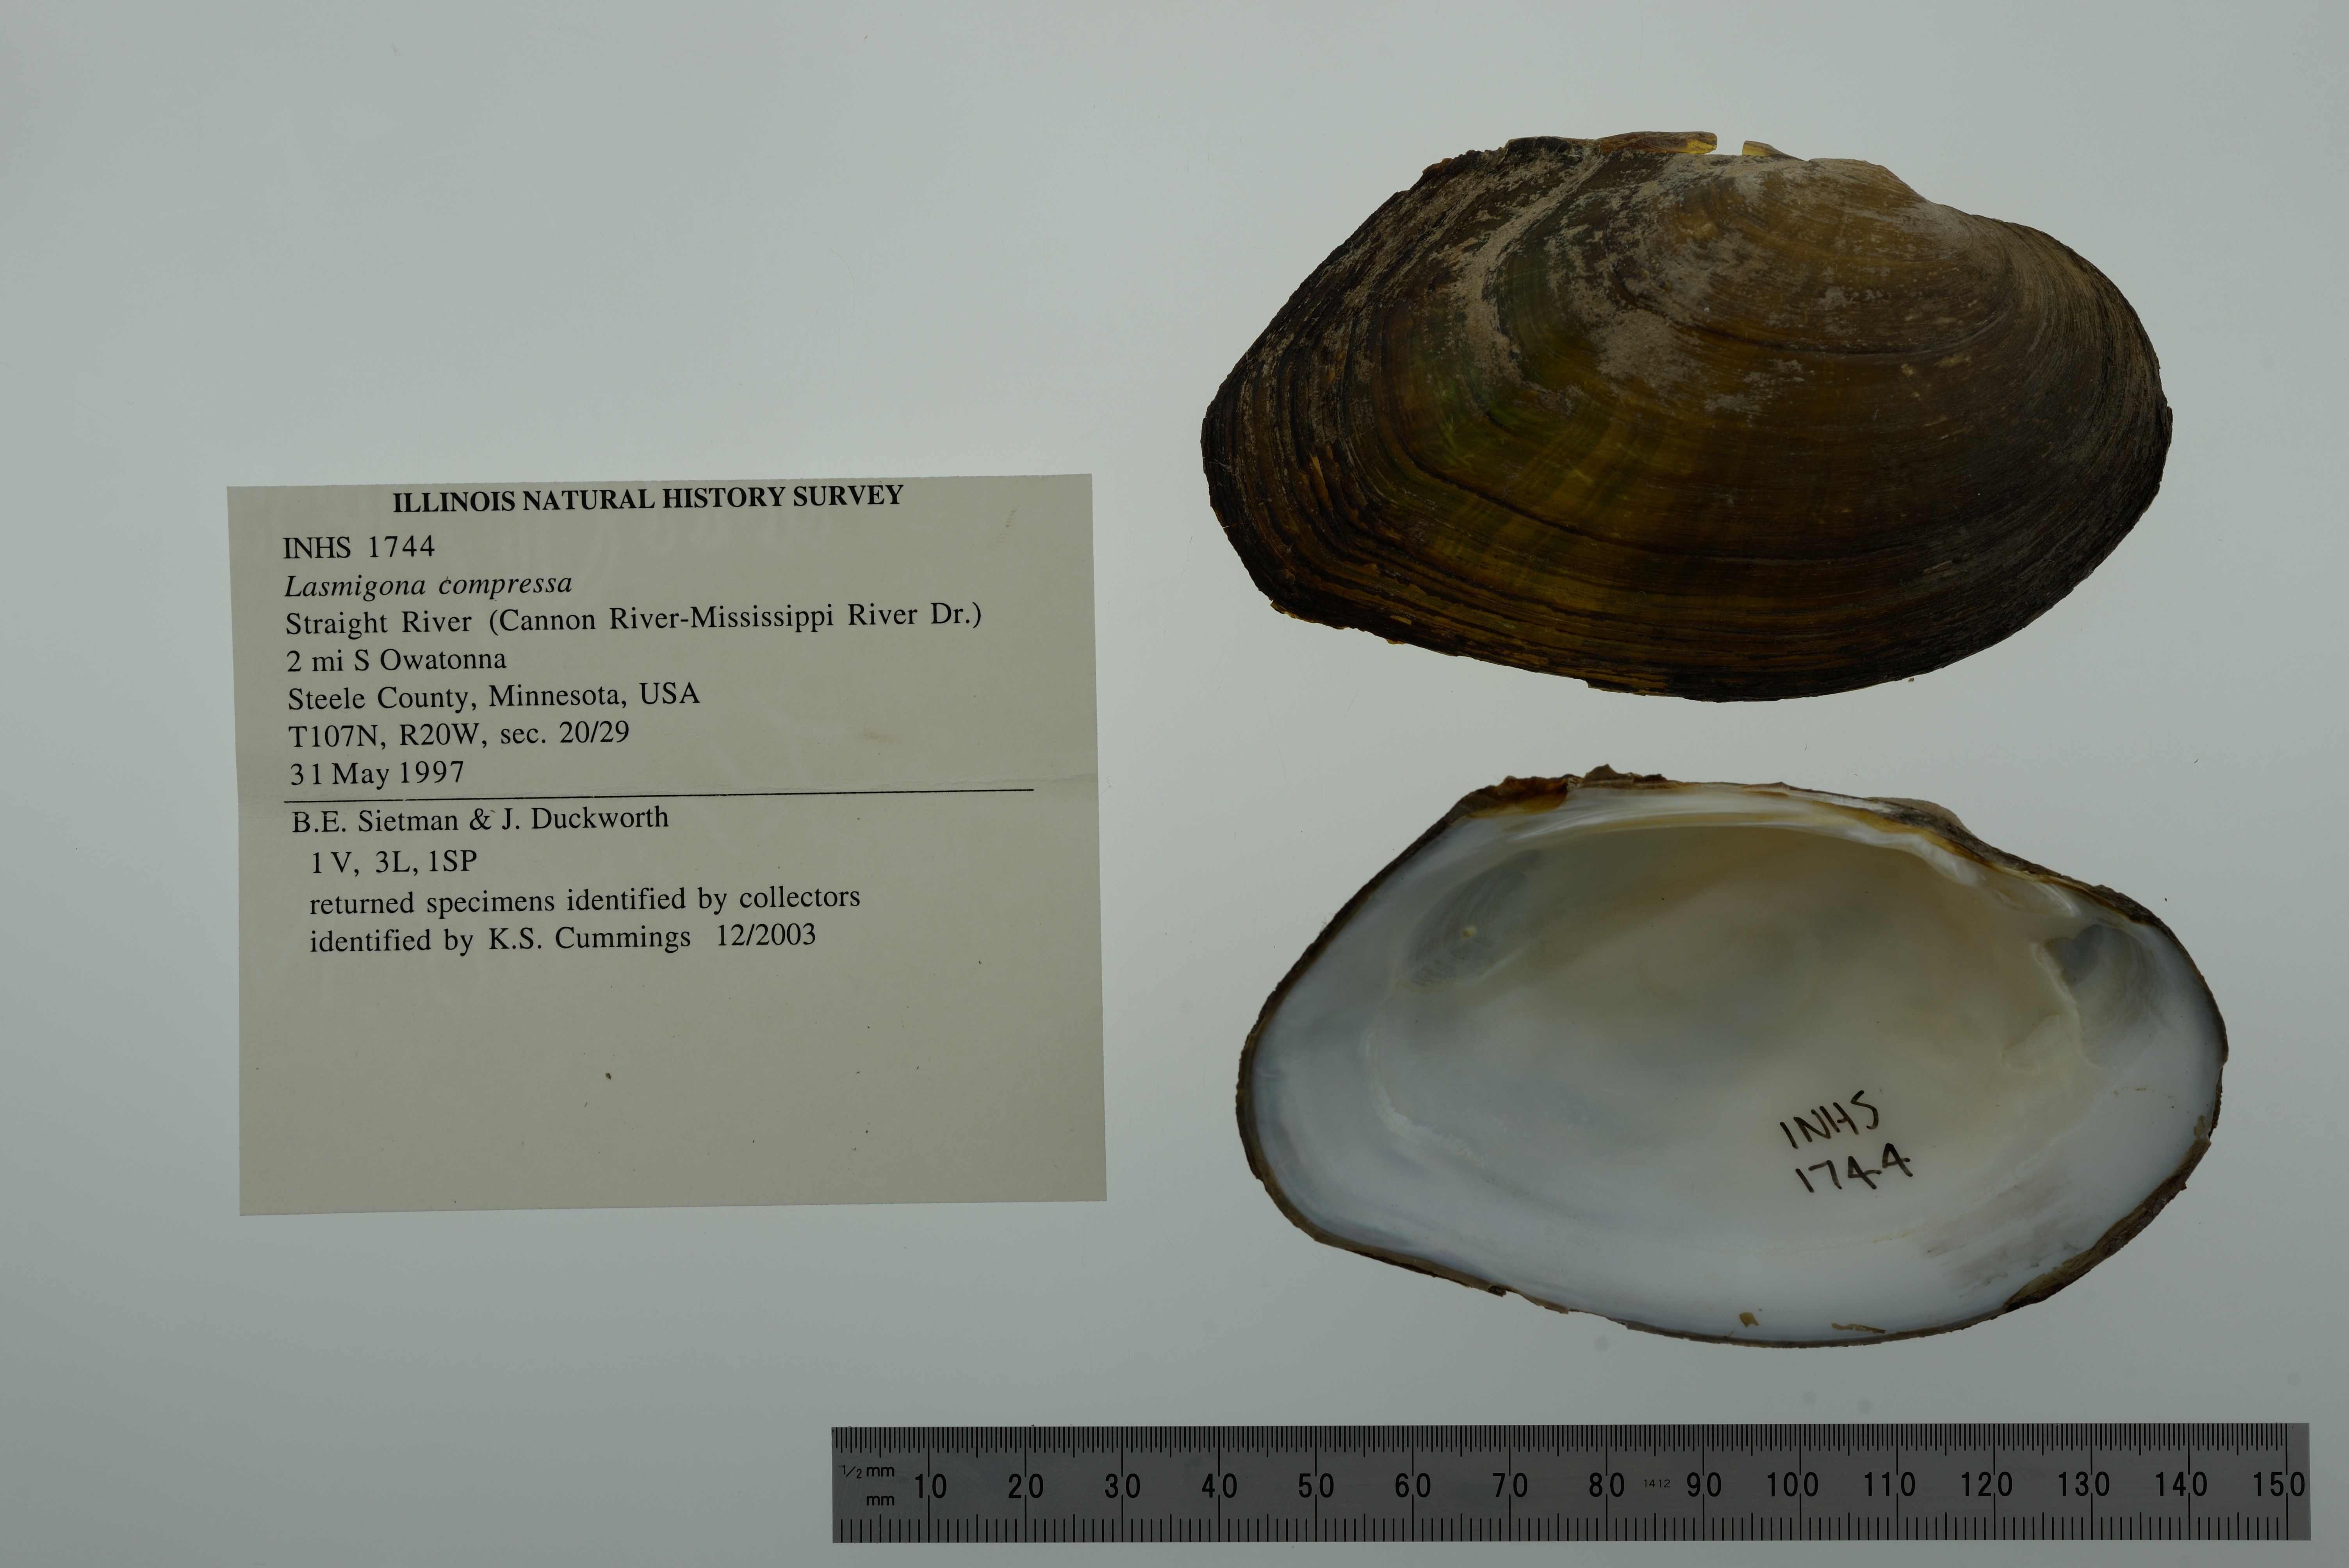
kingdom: Animalia
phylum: Mollusca
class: Bivalvia
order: Unionida
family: Unionidae
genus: Lasmigona
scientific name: Lasmigona compressa
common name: Creek heelsplitter
